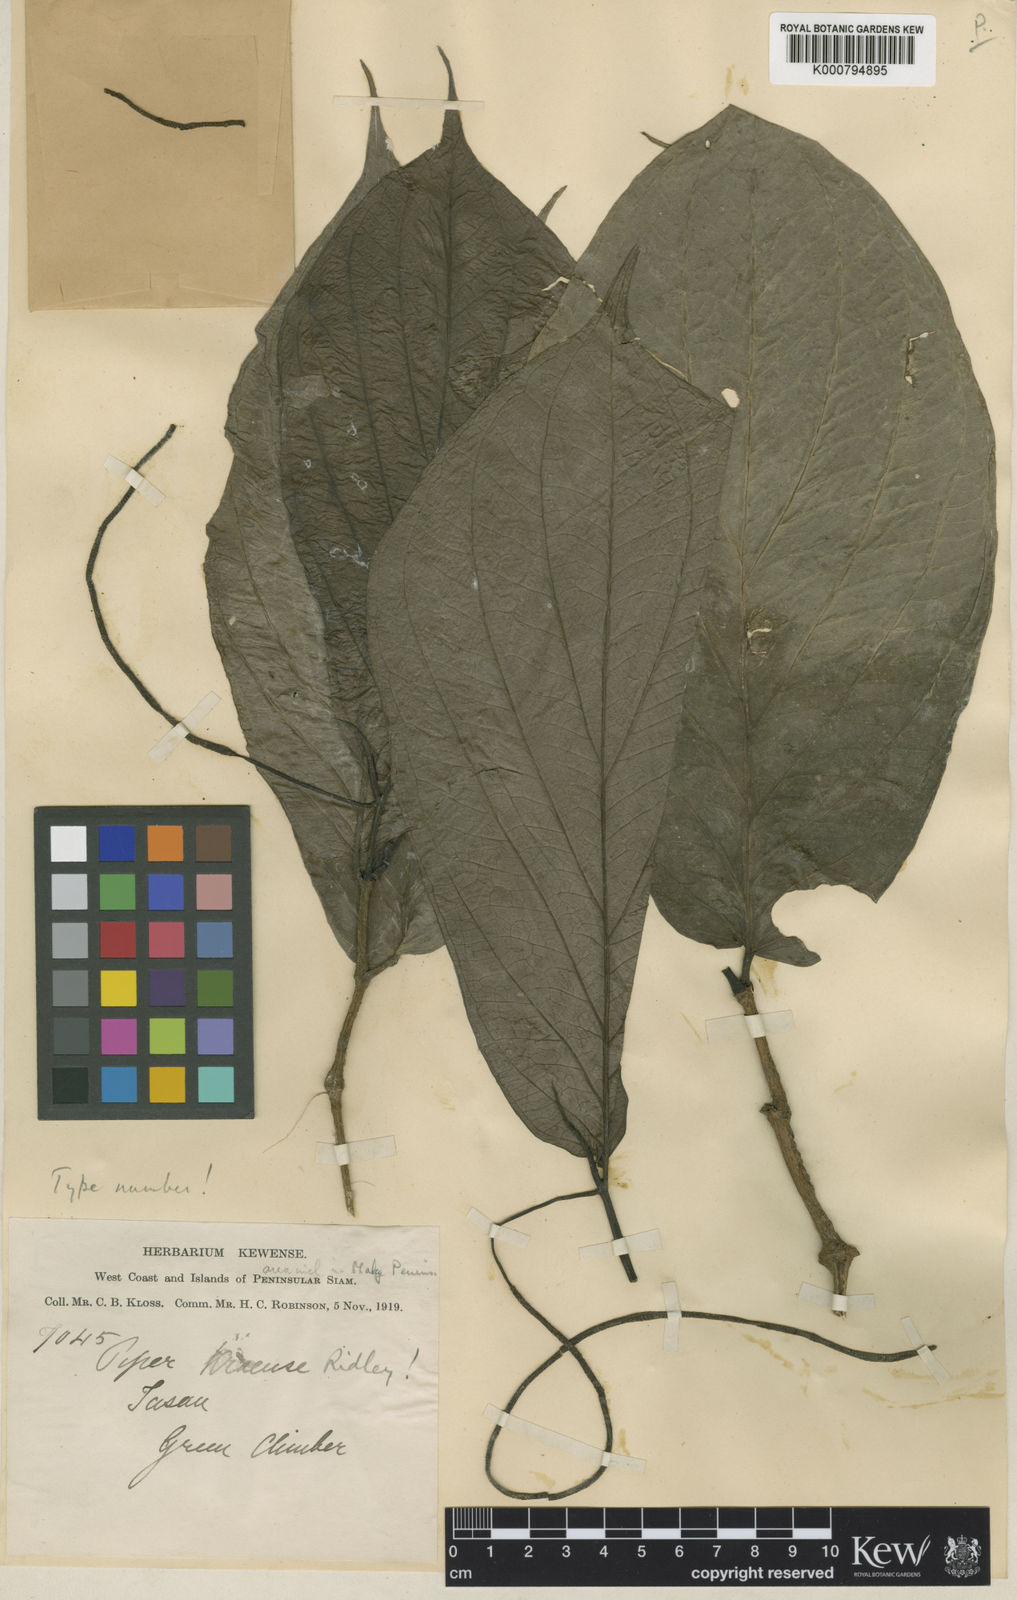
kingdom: Plantae
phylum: Tracheophyta
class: Magnoliopsida
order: Piperales
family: Piperaceae
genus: Piper
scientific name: Piper majusculum
